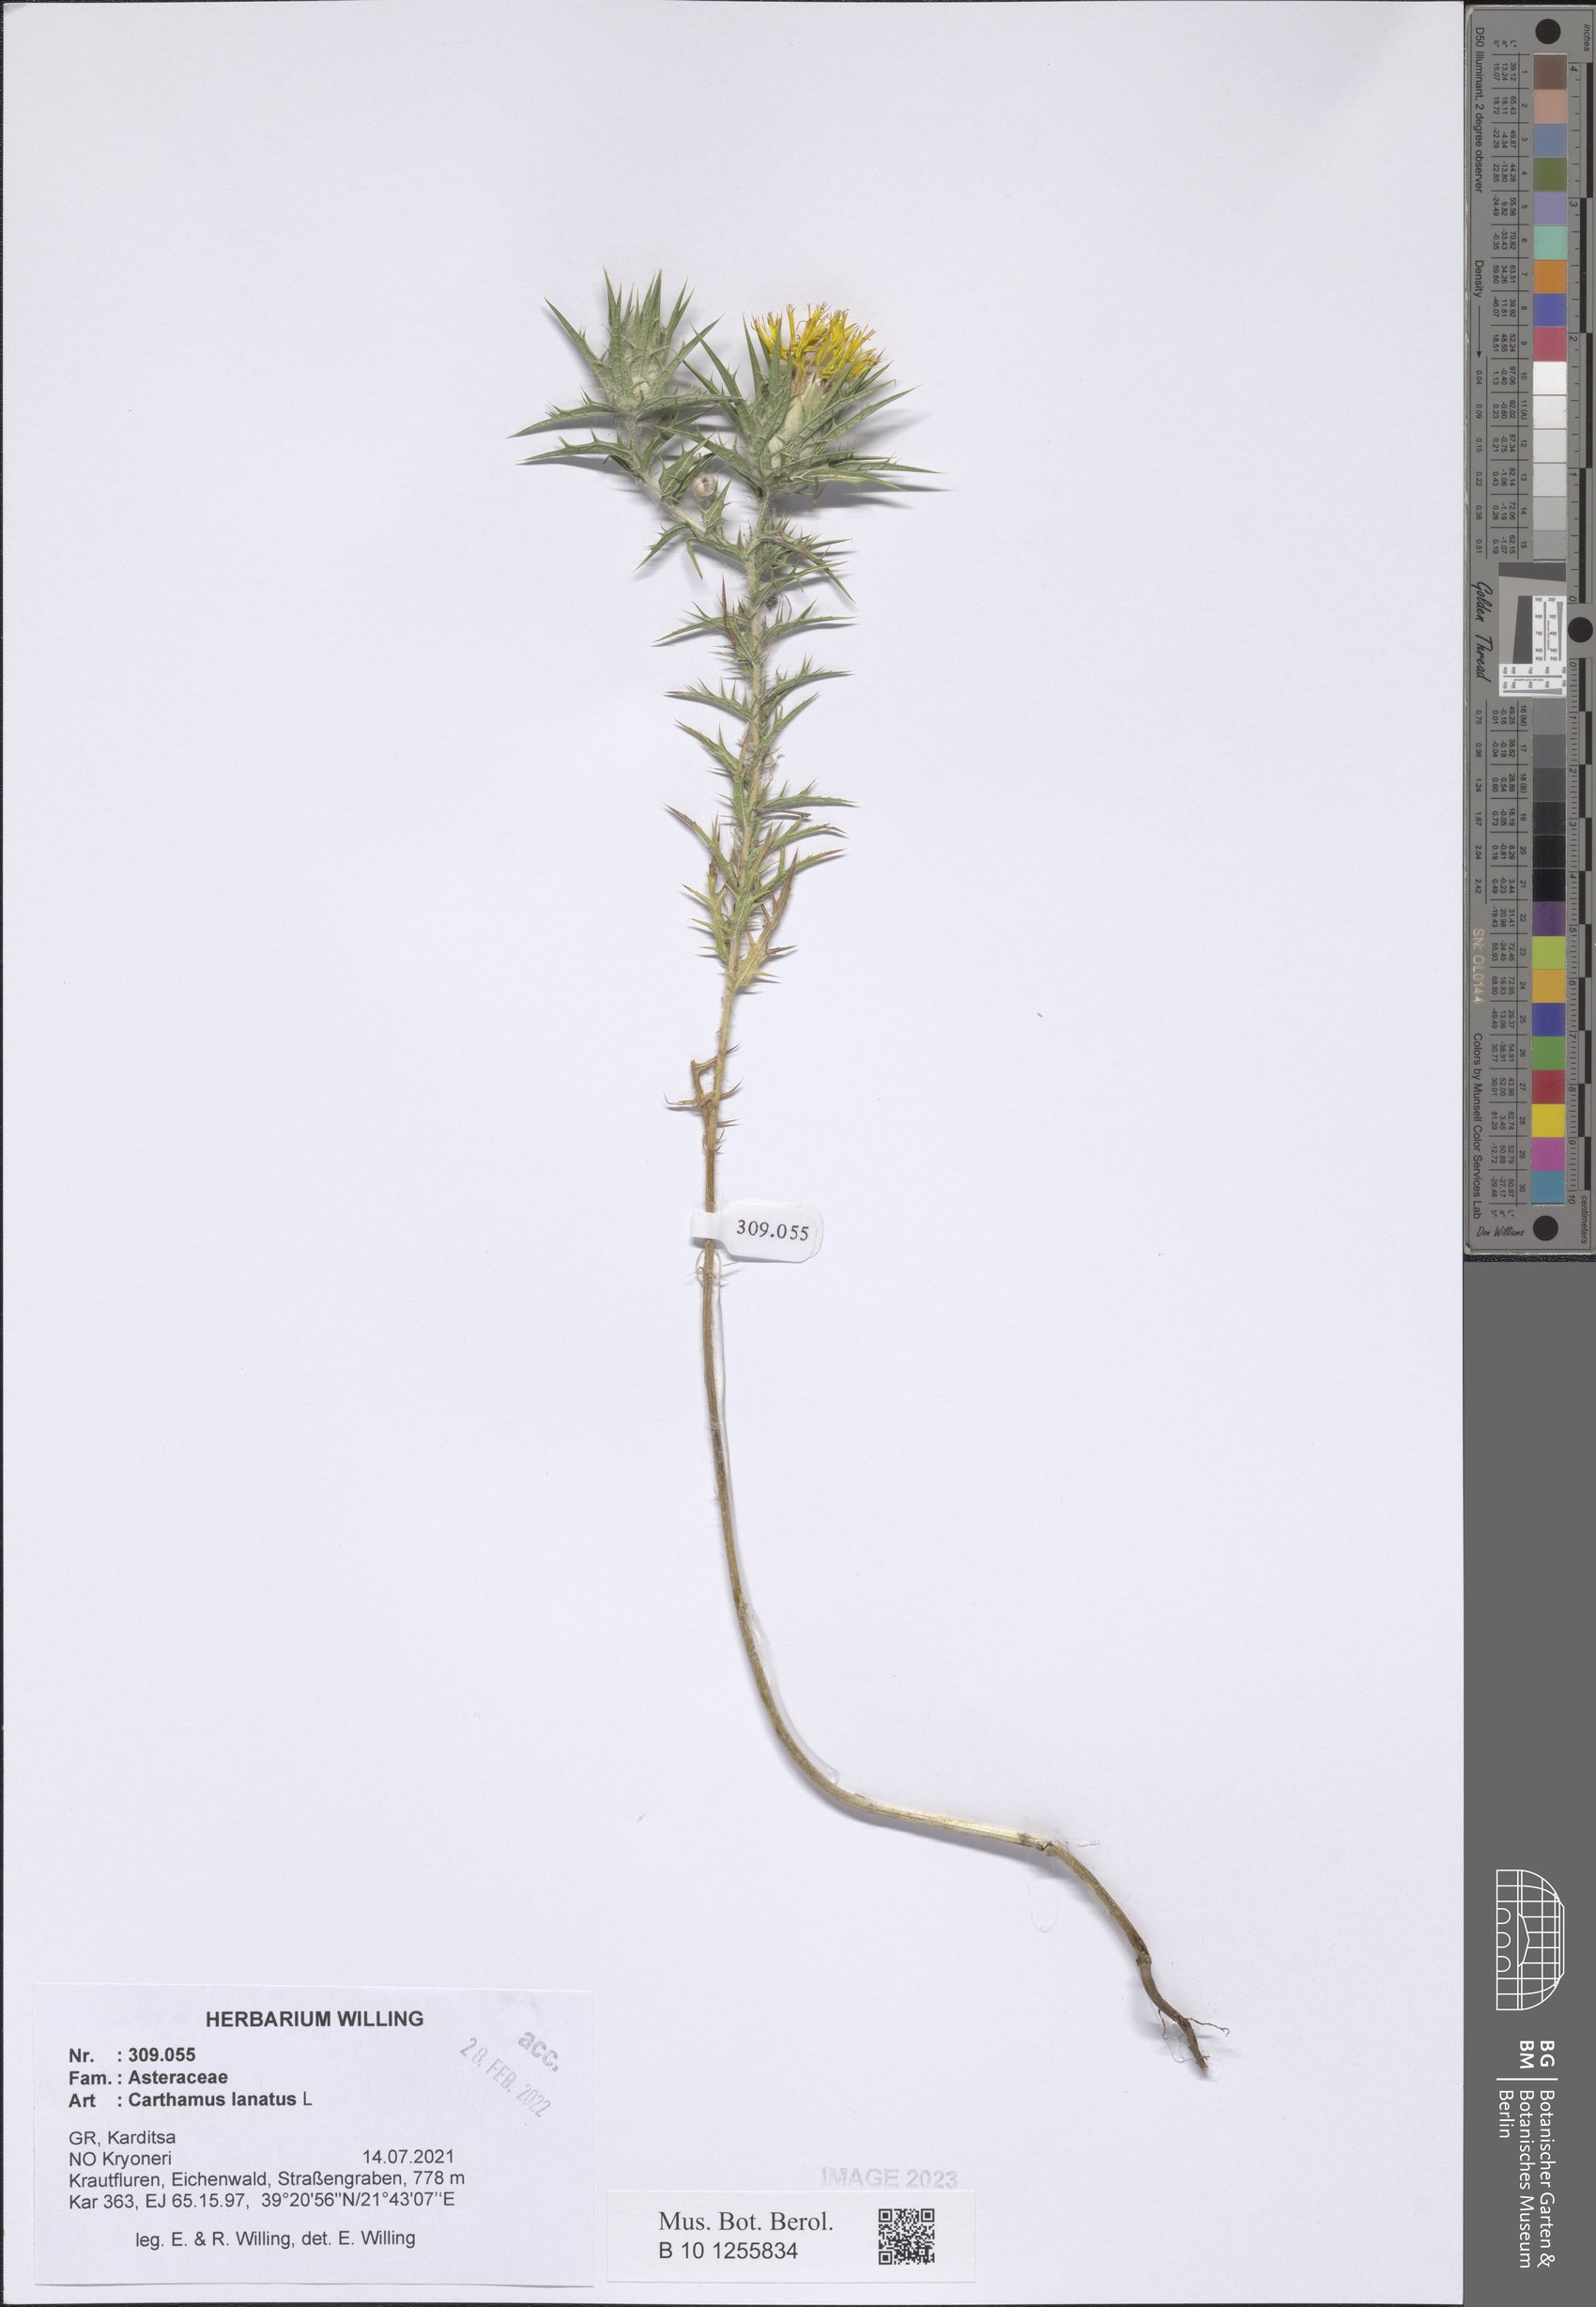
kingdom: Plantae
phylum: Tracheophyta
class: Magnoliopsida
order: Asterales
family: Asteraceae
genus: Carthamus
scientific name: Carthamus lanatus
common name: Downy safflower
